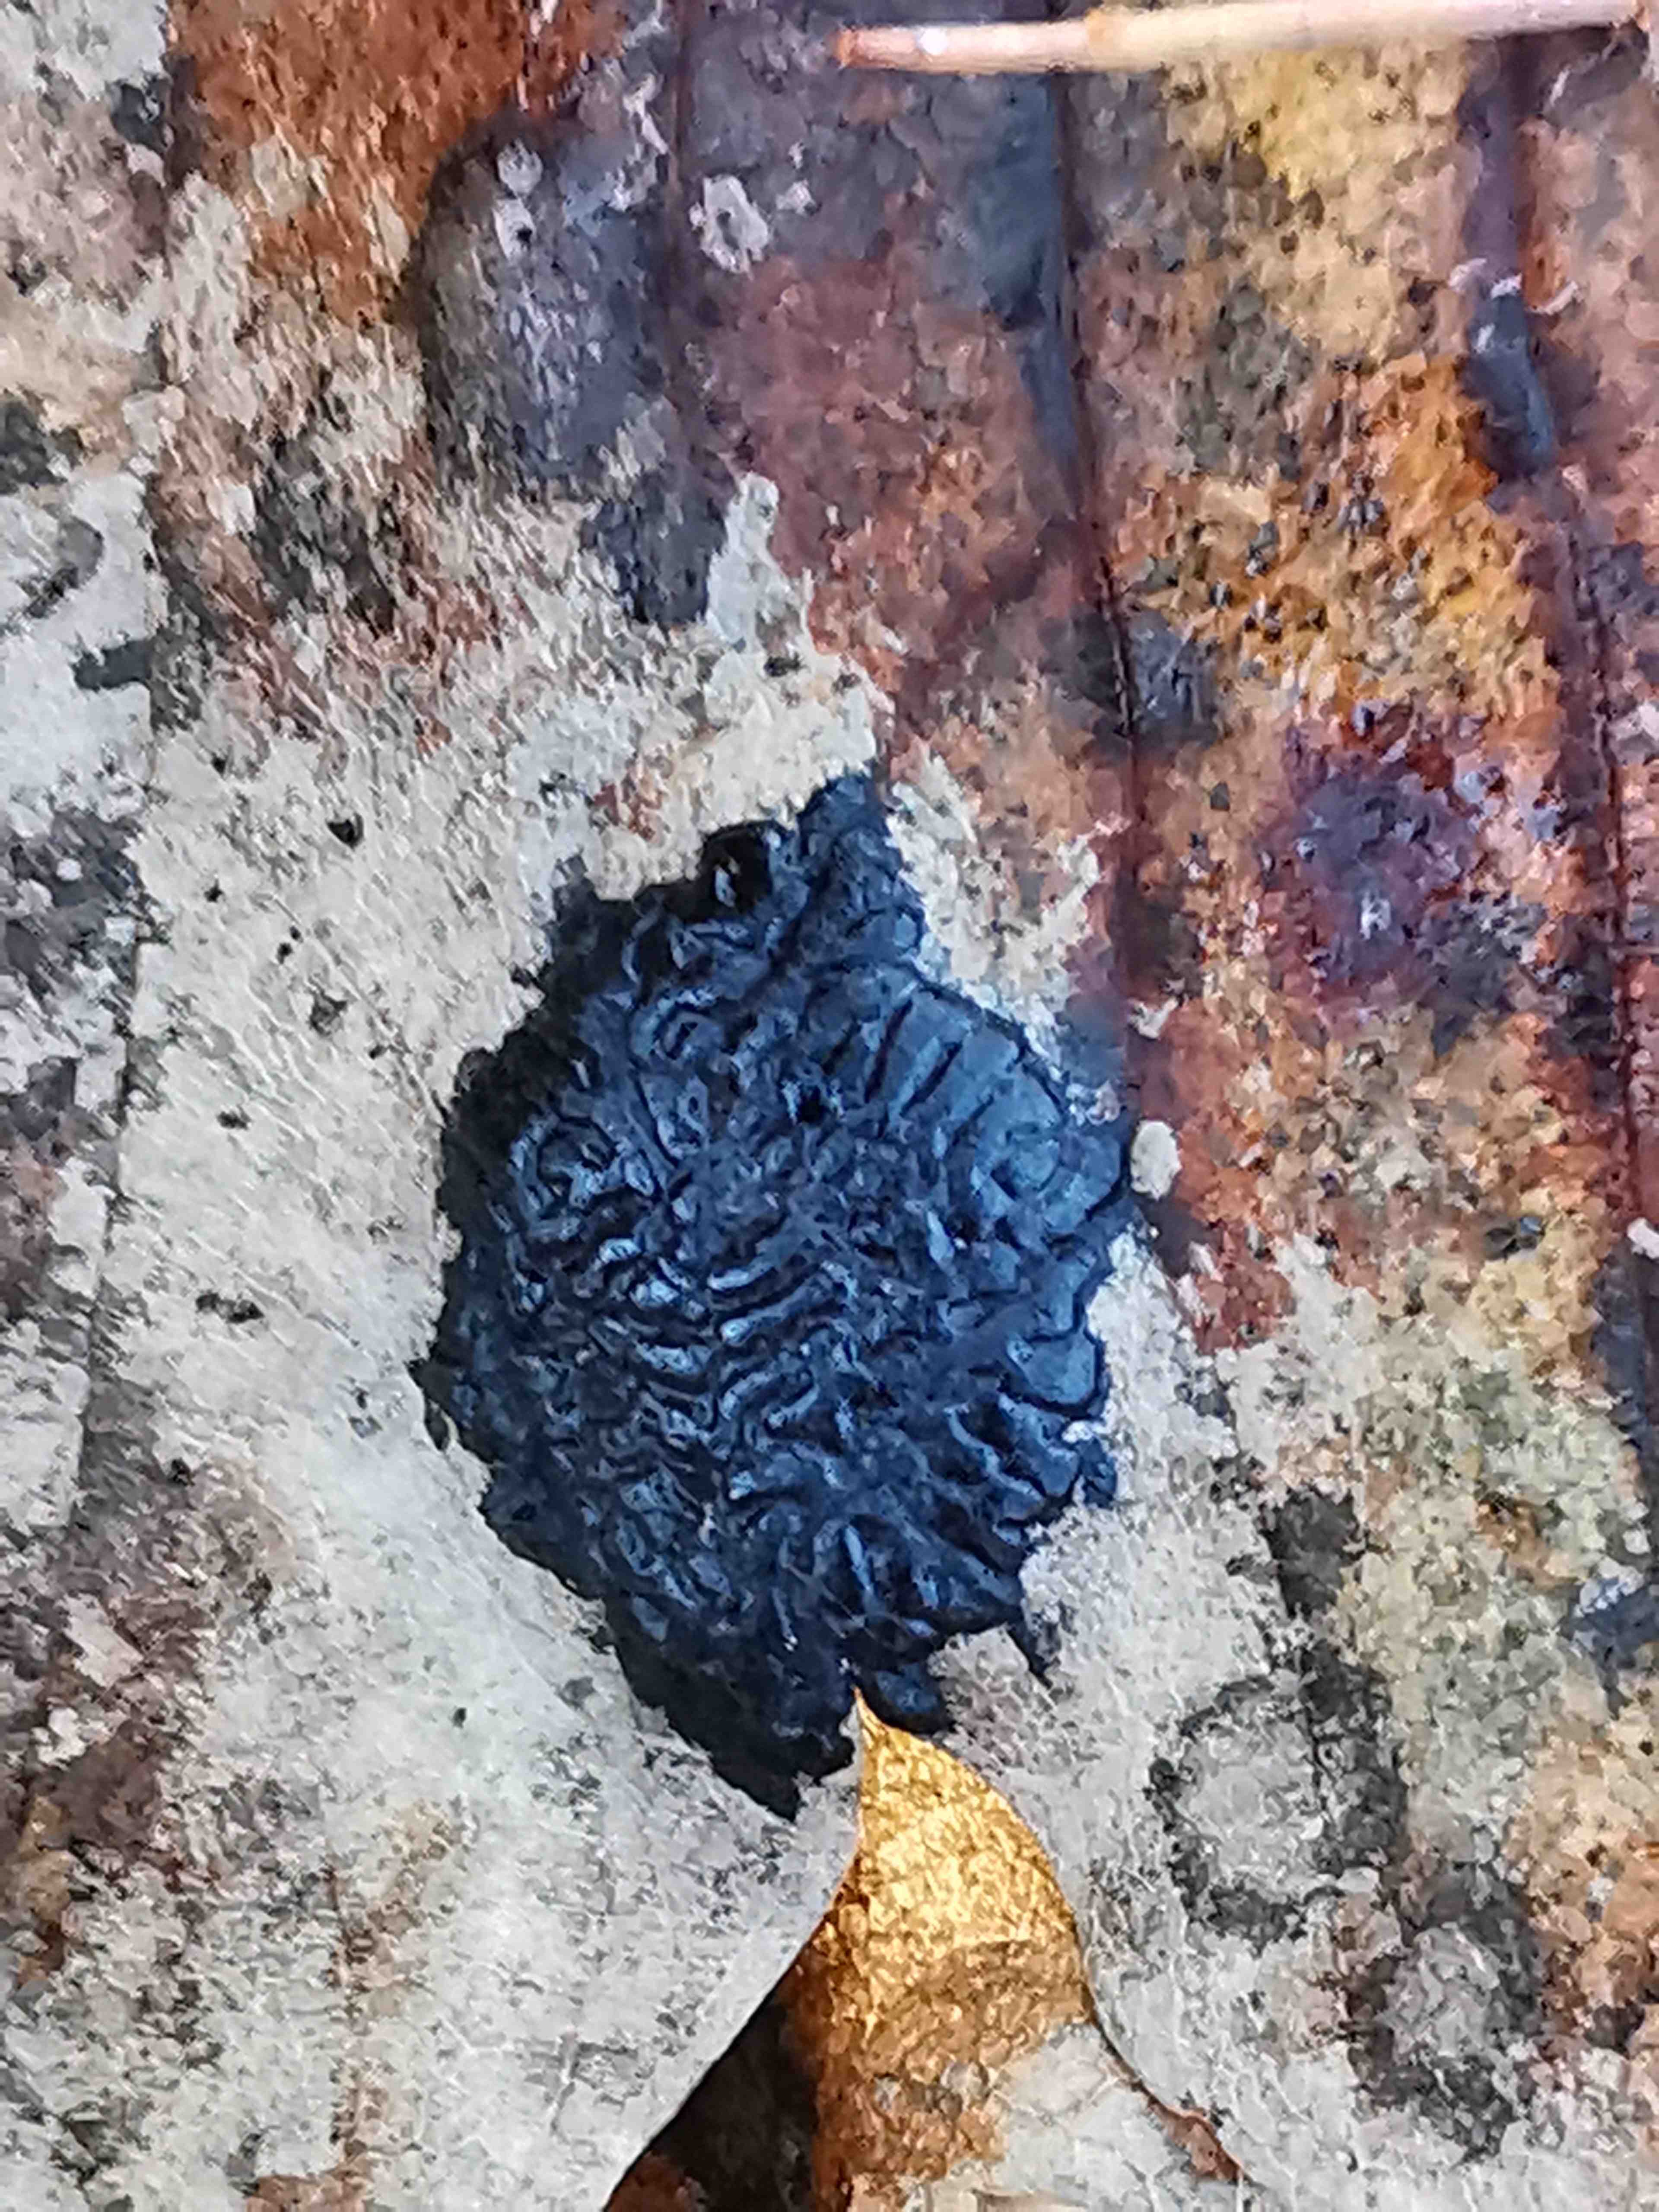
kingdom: Fungi
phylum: Ascomycota
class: Leotiomycetes
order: Rhytismatales
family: Rhytismataceae
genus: Rhytisma
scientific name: Rhytisma acerinum
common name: ahorn-rynkeplet
